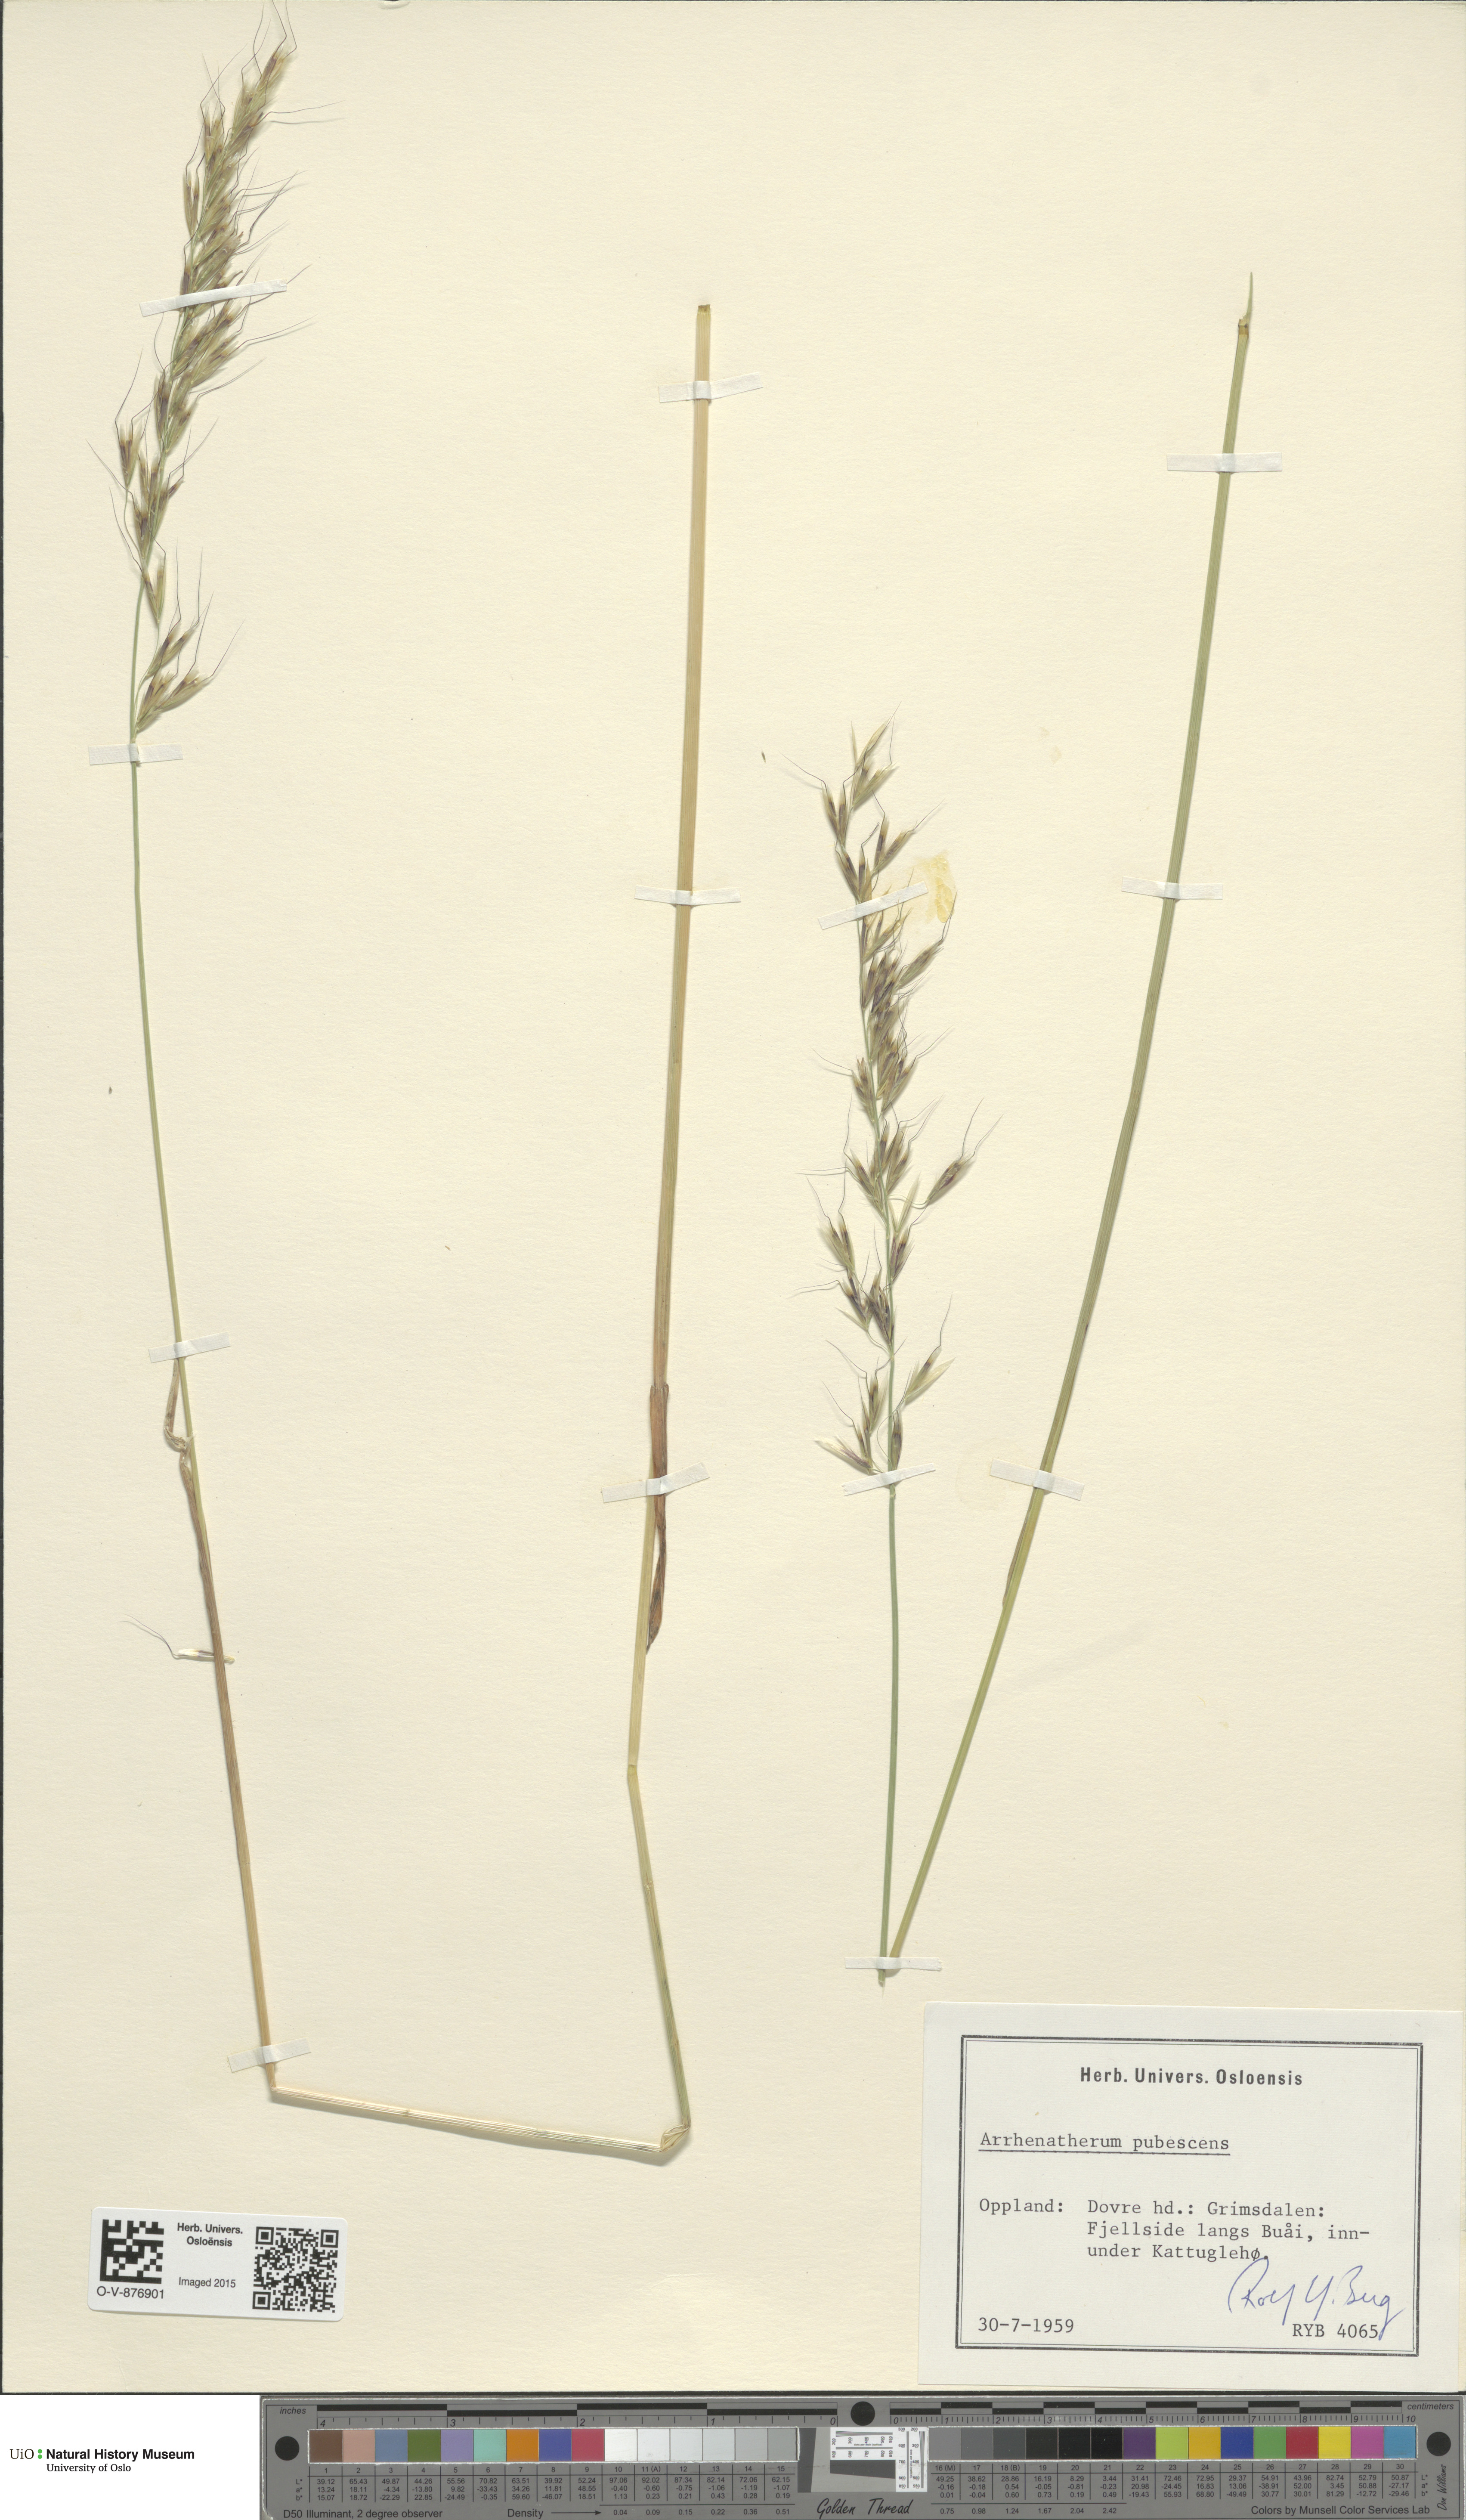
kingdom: Plantae
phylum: Tracheophyta
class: Liliopsida
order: Poales
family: Poaceae
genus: Avenula
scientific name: Avenula pubescens
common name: Downy alpine oatgrass
